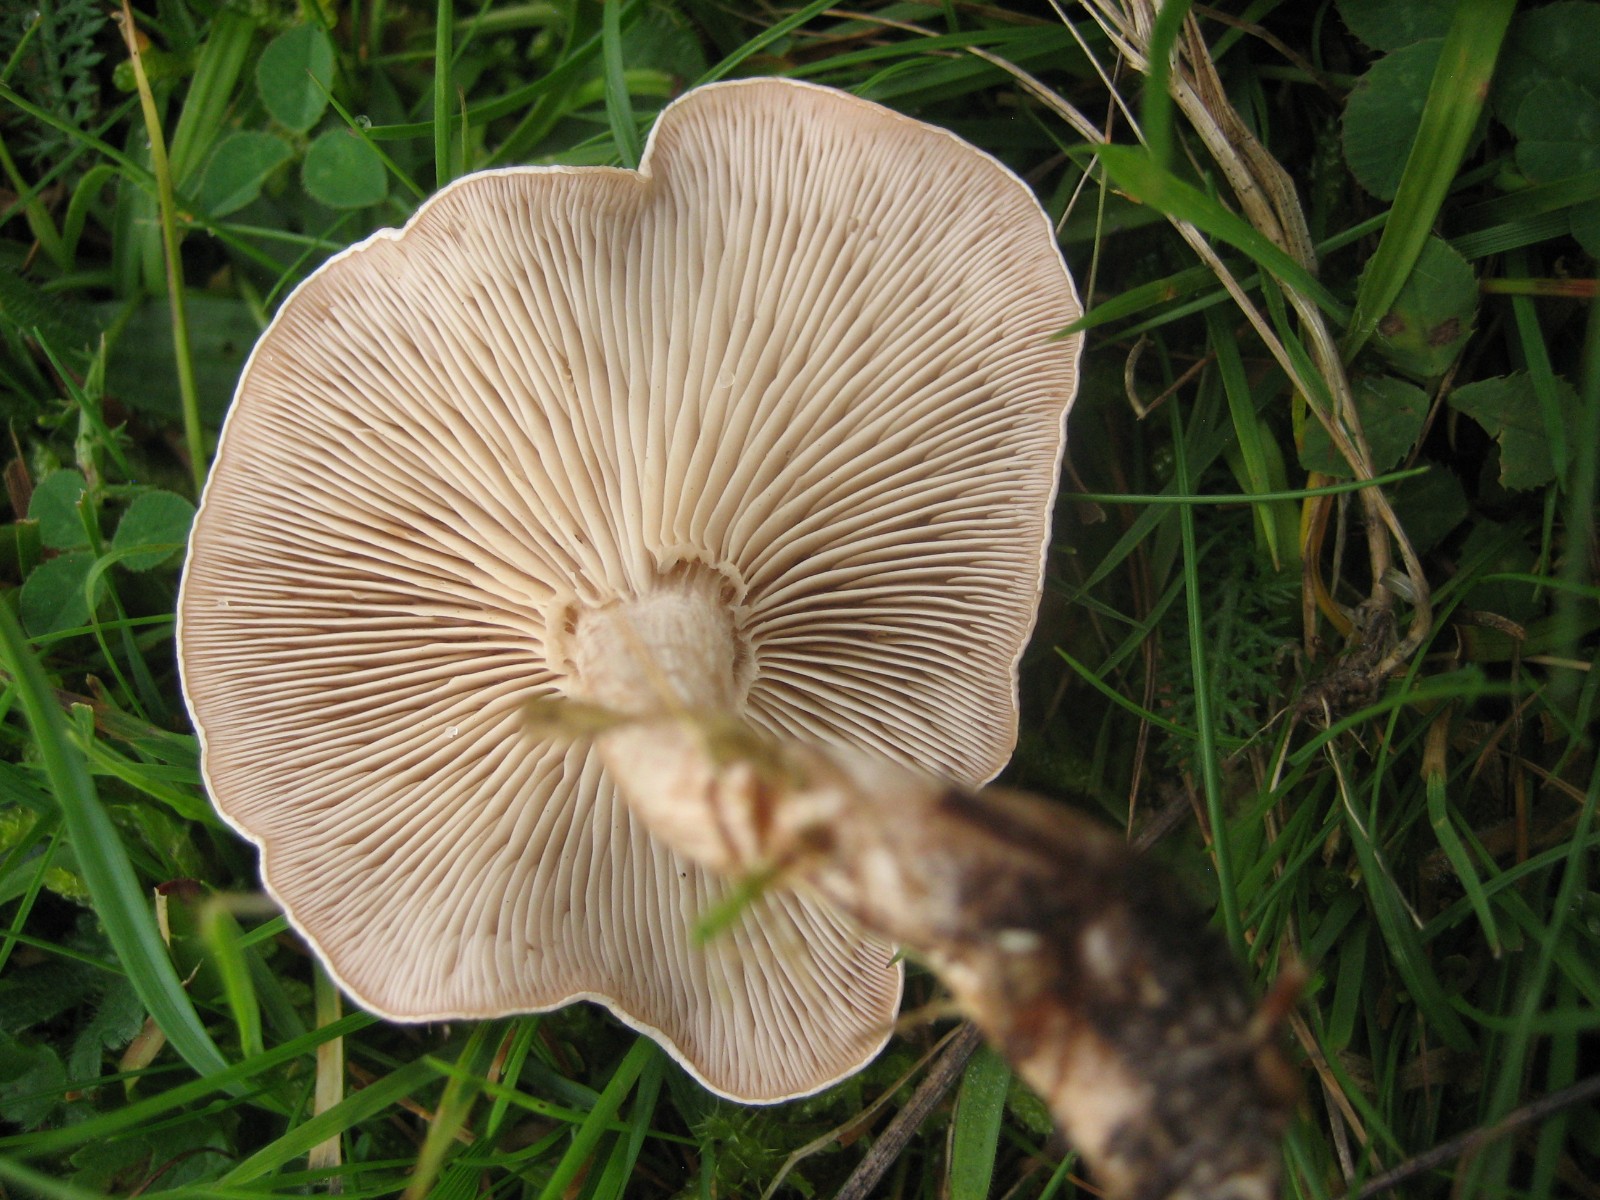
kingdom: Fungi
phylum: Basidiomycota
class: Agaricomycetes
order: Agaricales
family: Tricholomataceae
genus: Clitocybe
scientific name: Clitocybe rivulosa
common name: eng-tragthat
